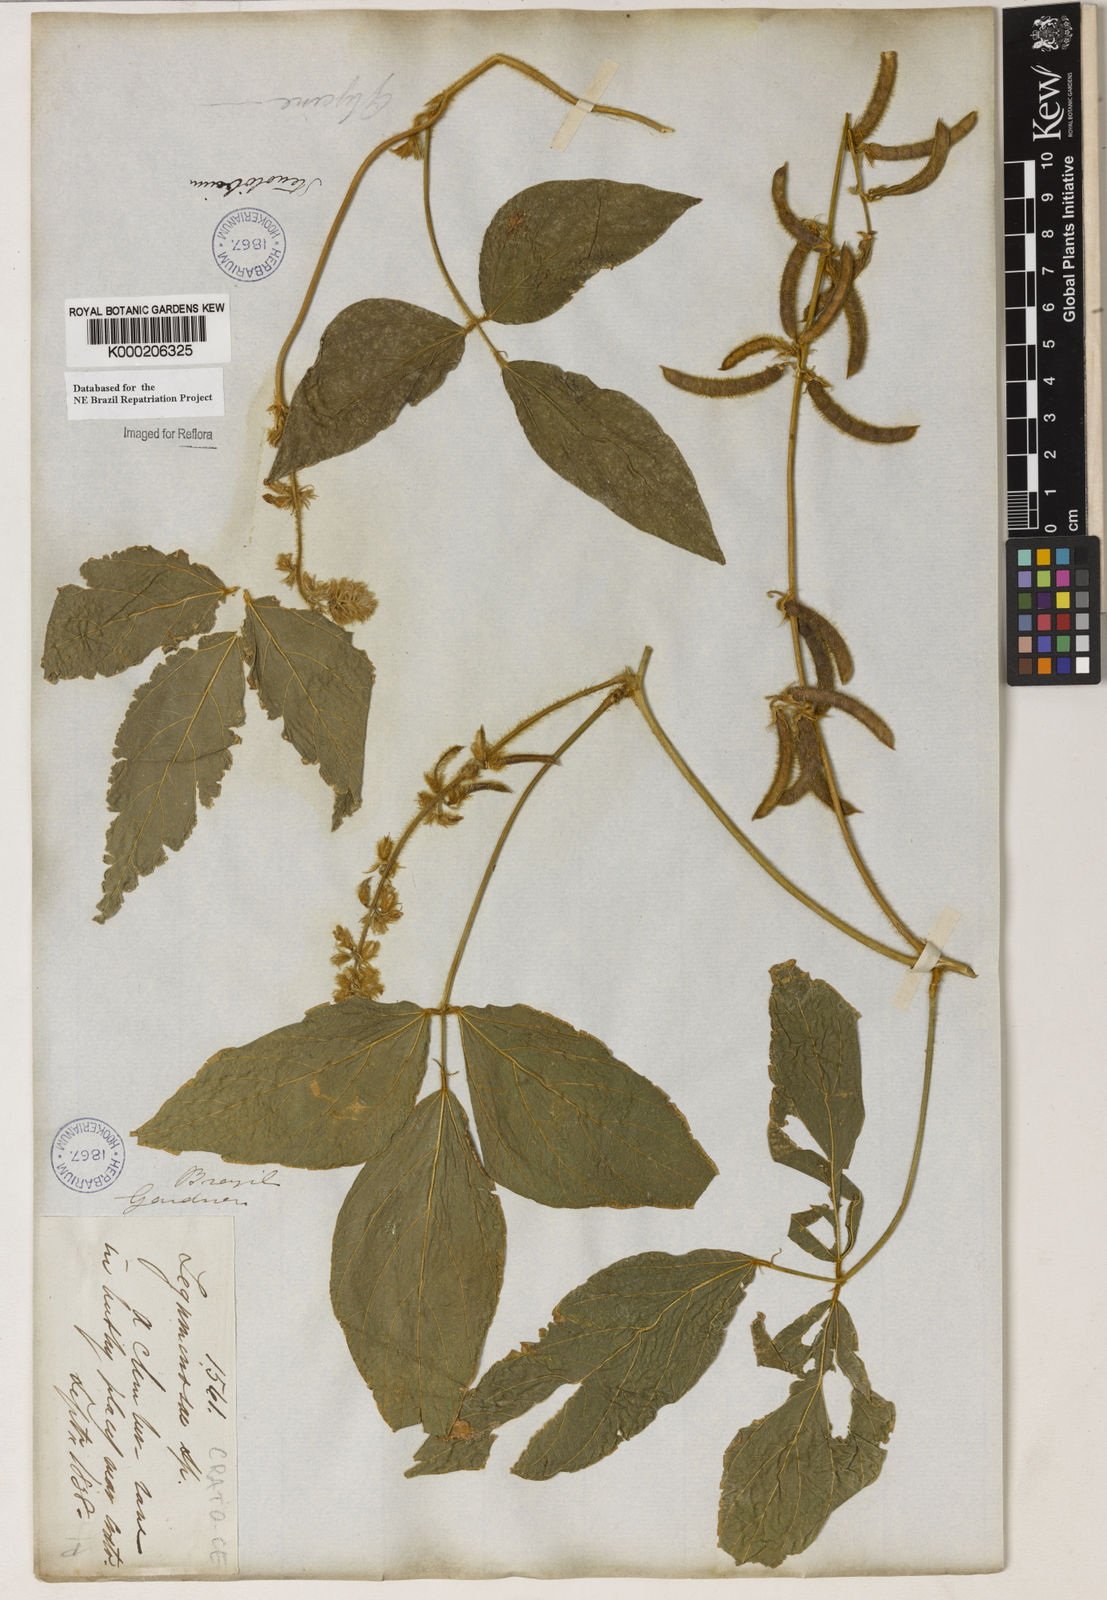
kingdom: Plantae
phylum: Tracheophyta
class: Magnoliopsida
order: Fabales
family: Fabaceae
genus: Calopogonium
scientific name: Calopogonium mucunoides
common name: Calopo
